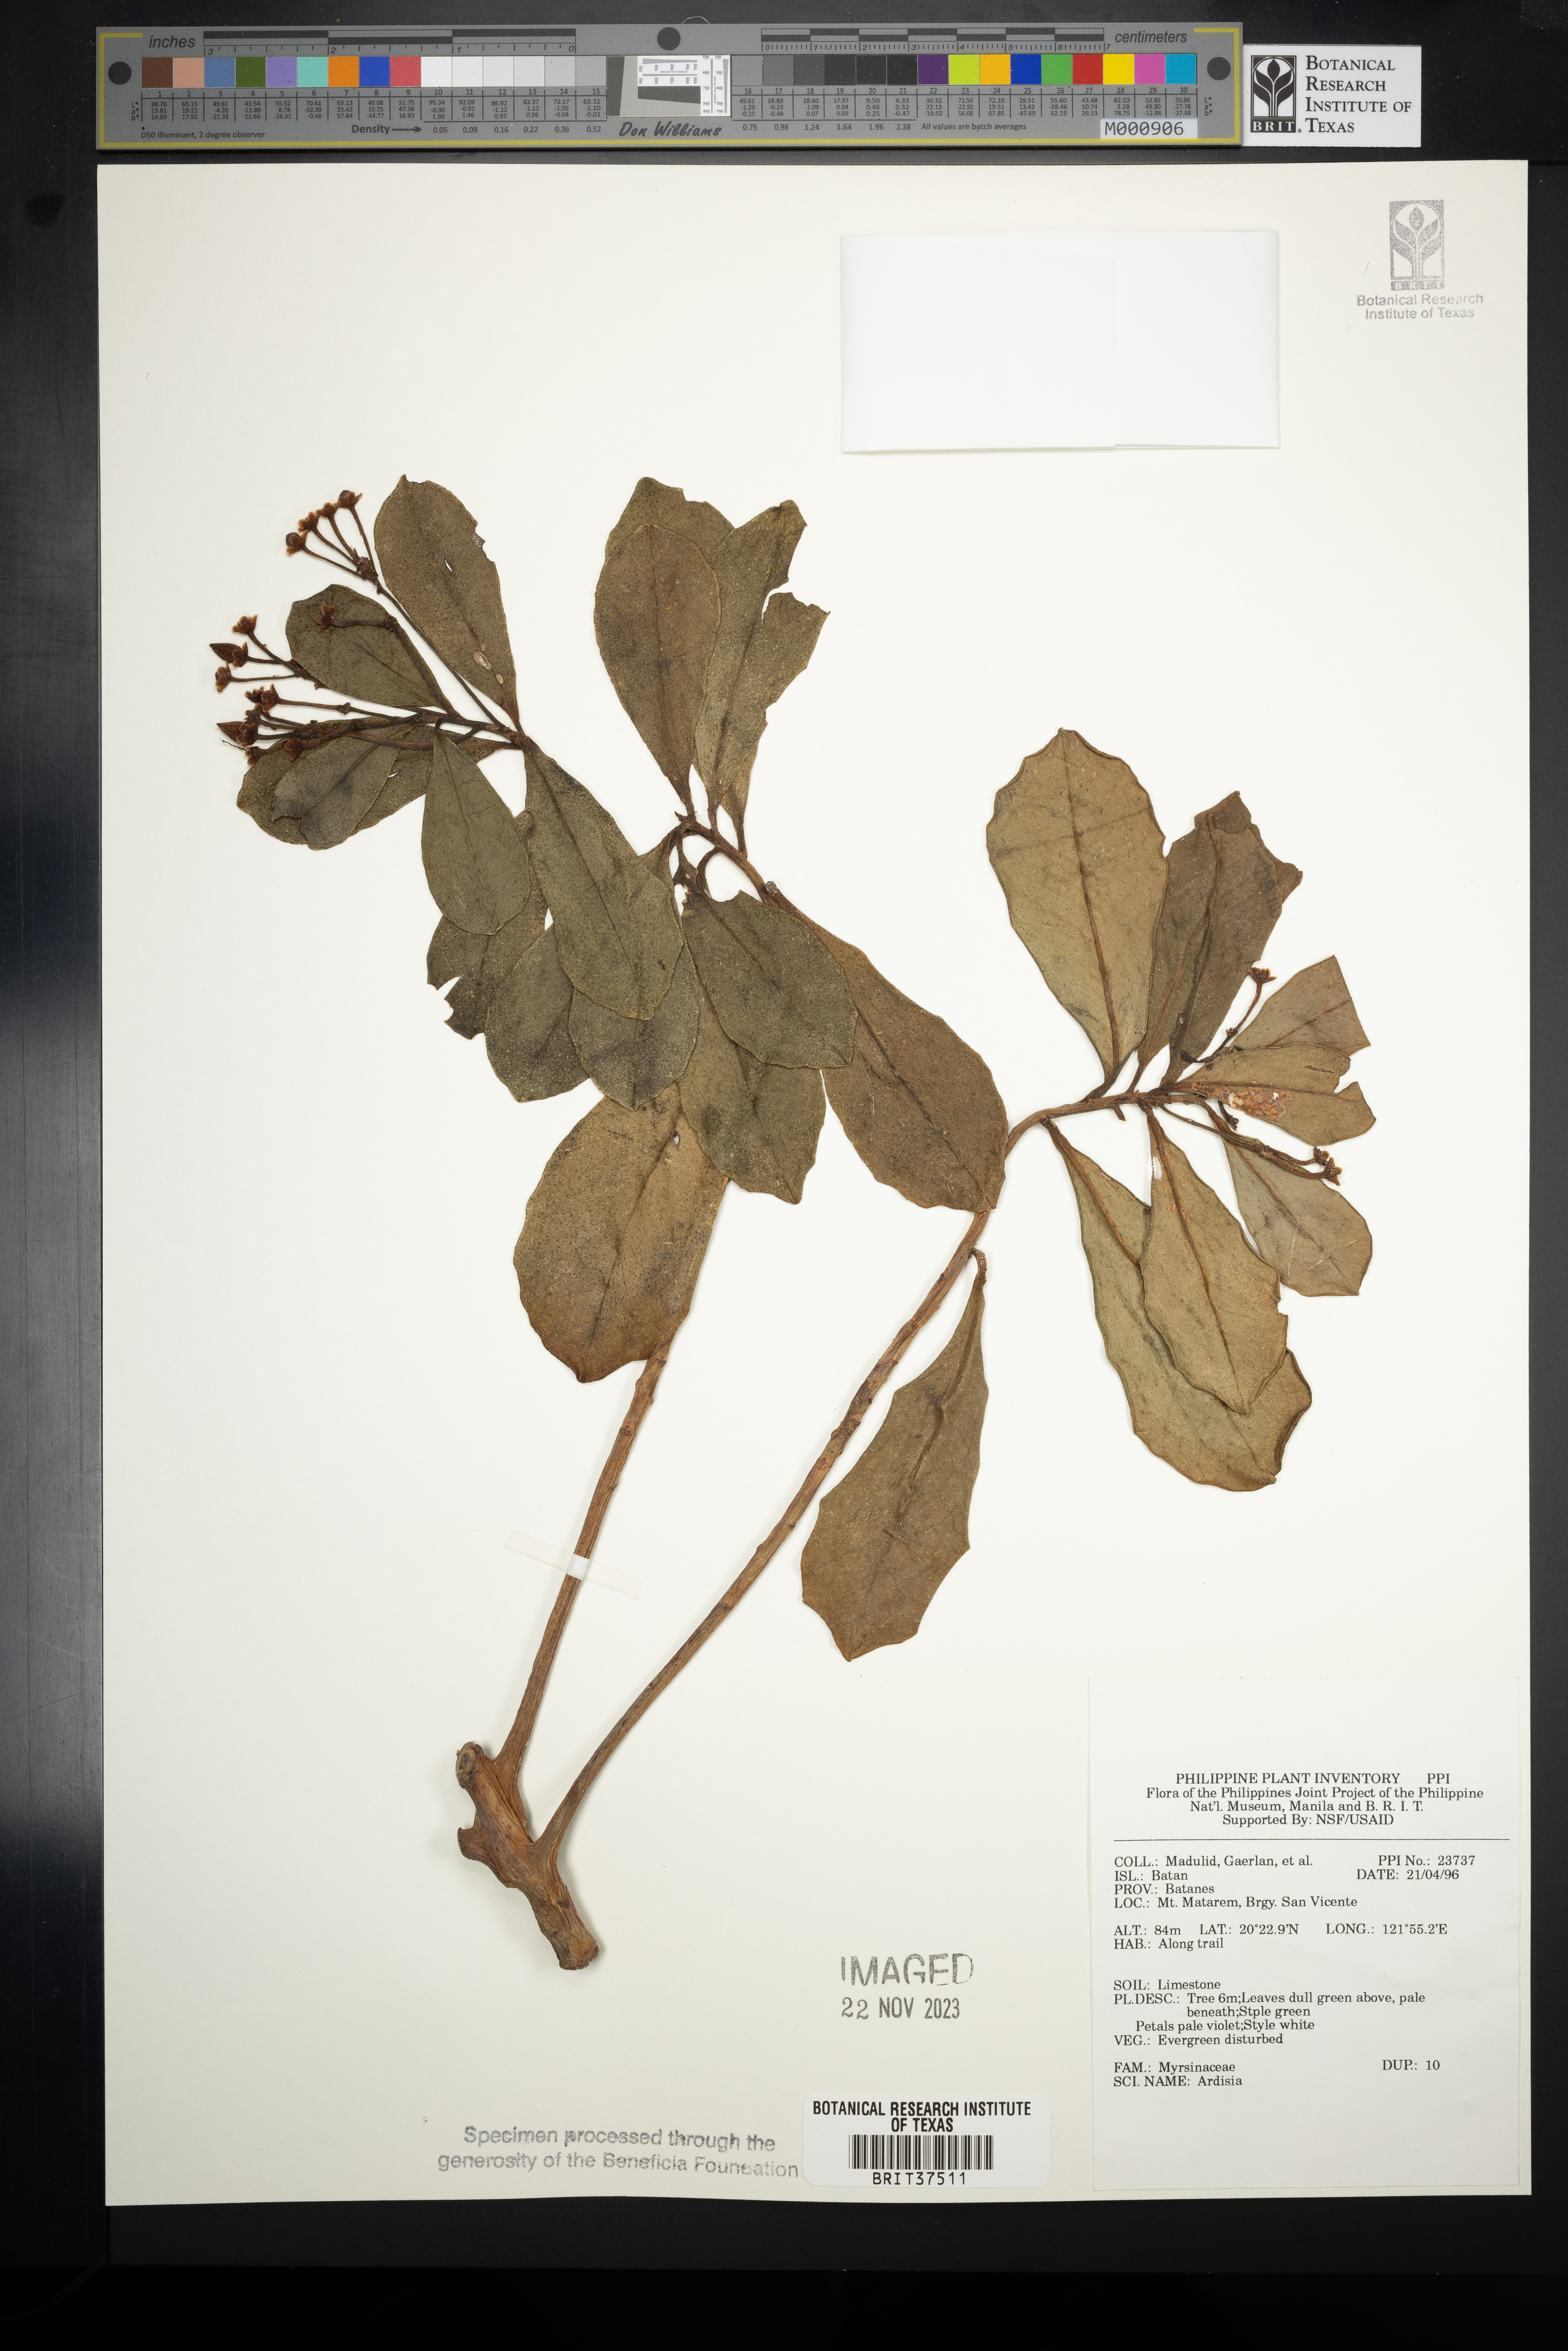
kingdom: Plantae
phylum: Tracheophyta
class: Magnoliopsida
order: Ericales
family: Primulaceae
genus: Ardisia
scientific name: Ardisia
